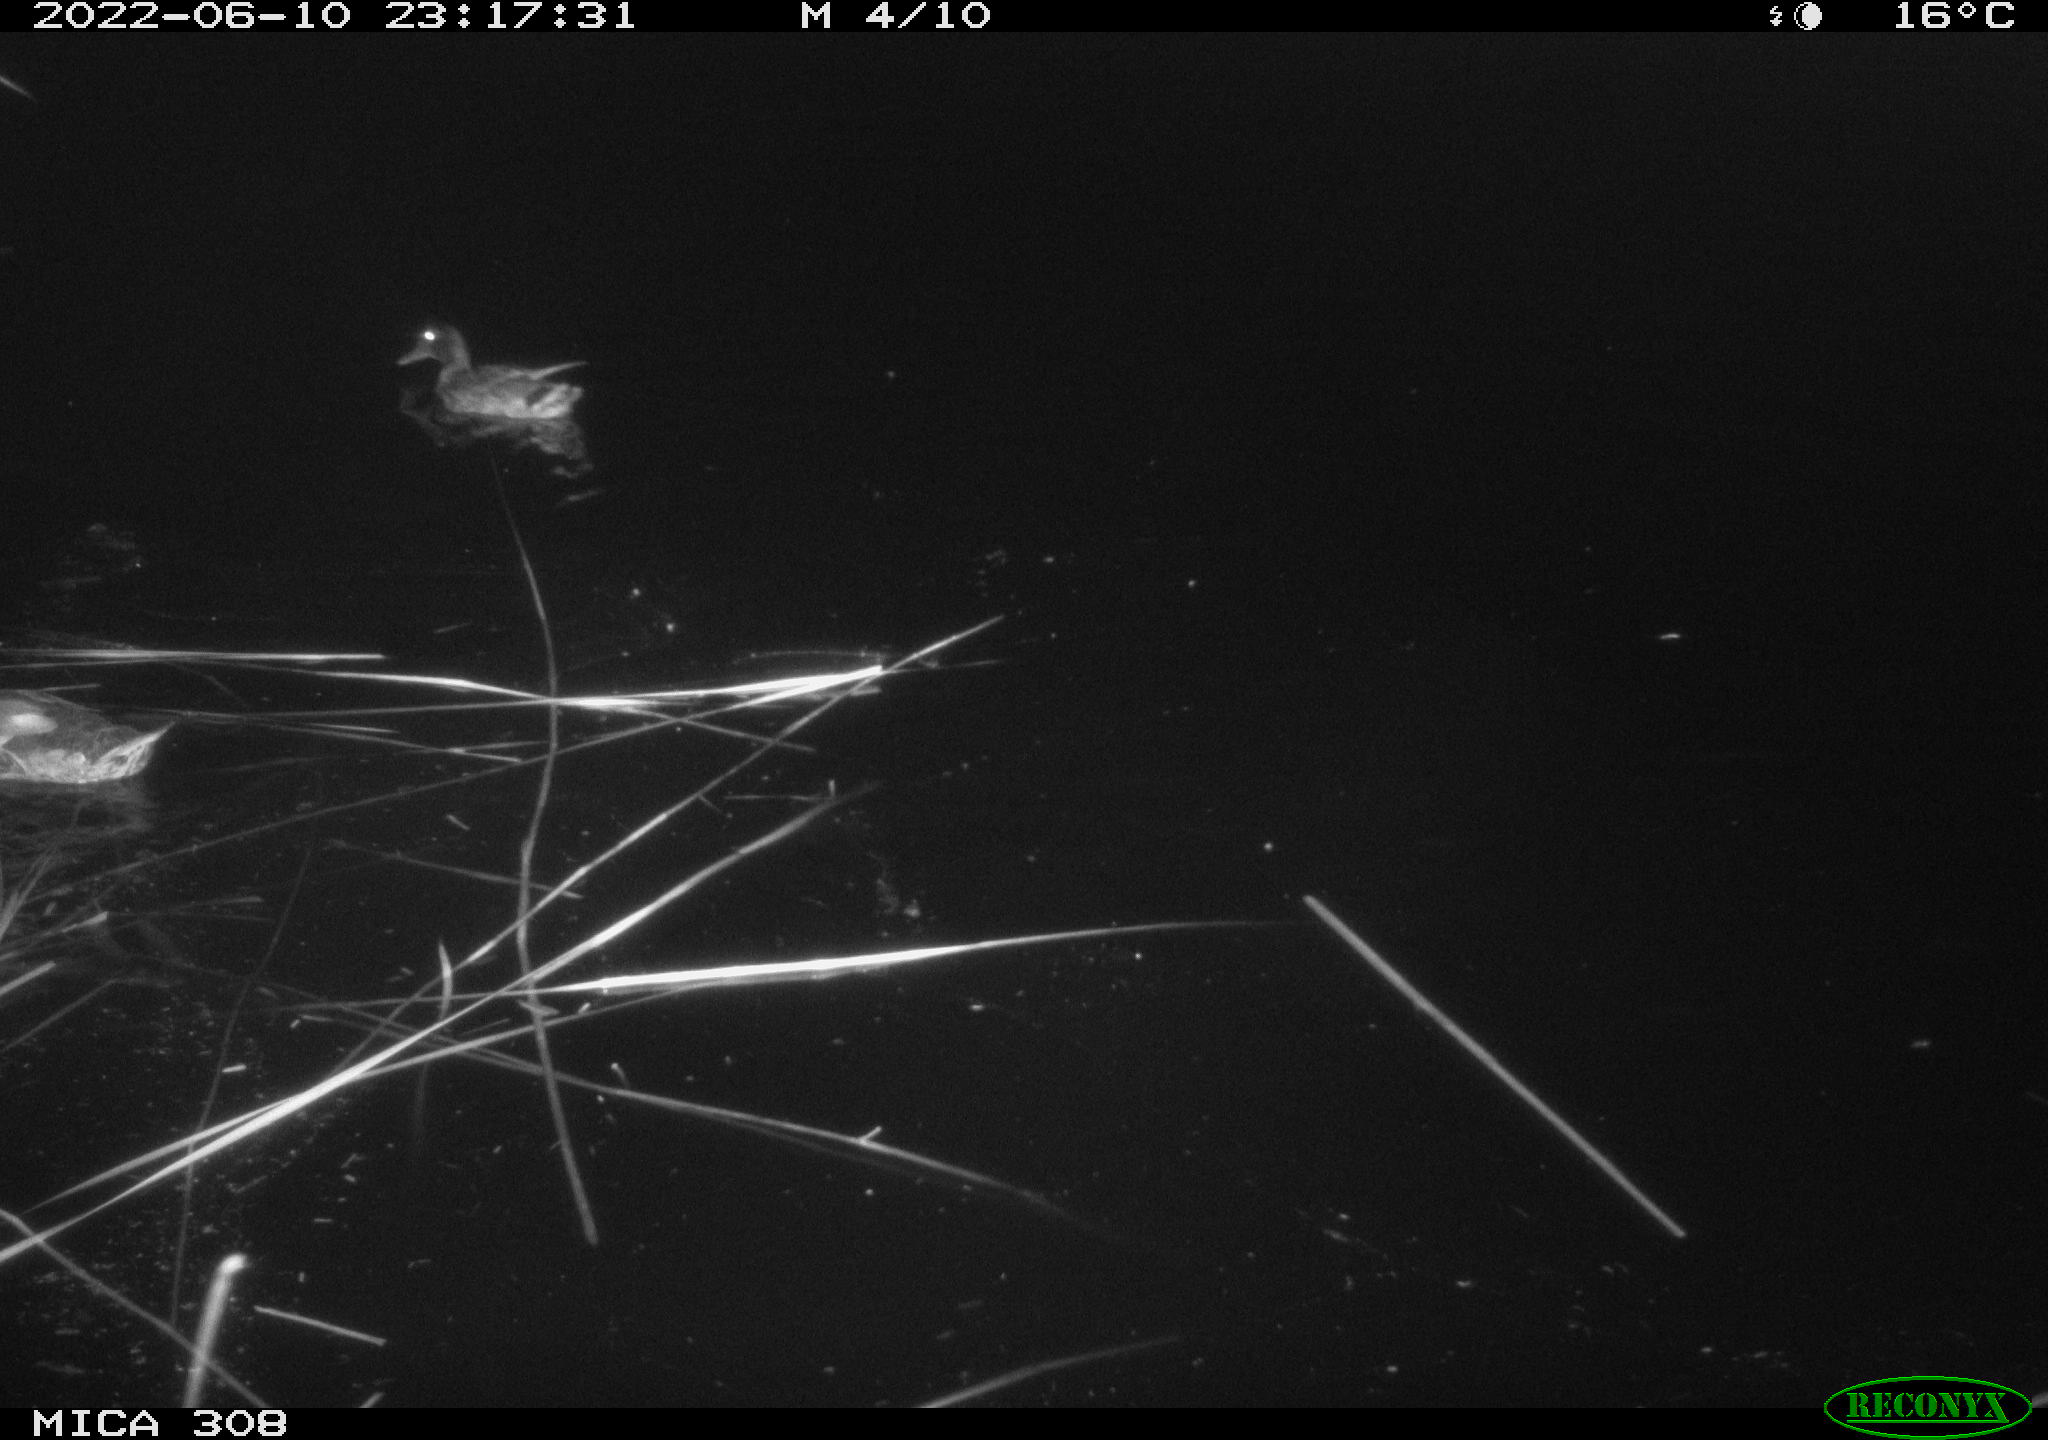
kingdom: Animalia
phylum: Chordata
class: Aves
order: Anseriformes
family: Anatidae
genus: Anas
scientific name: Anas platyrhynchos
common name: Mallard
